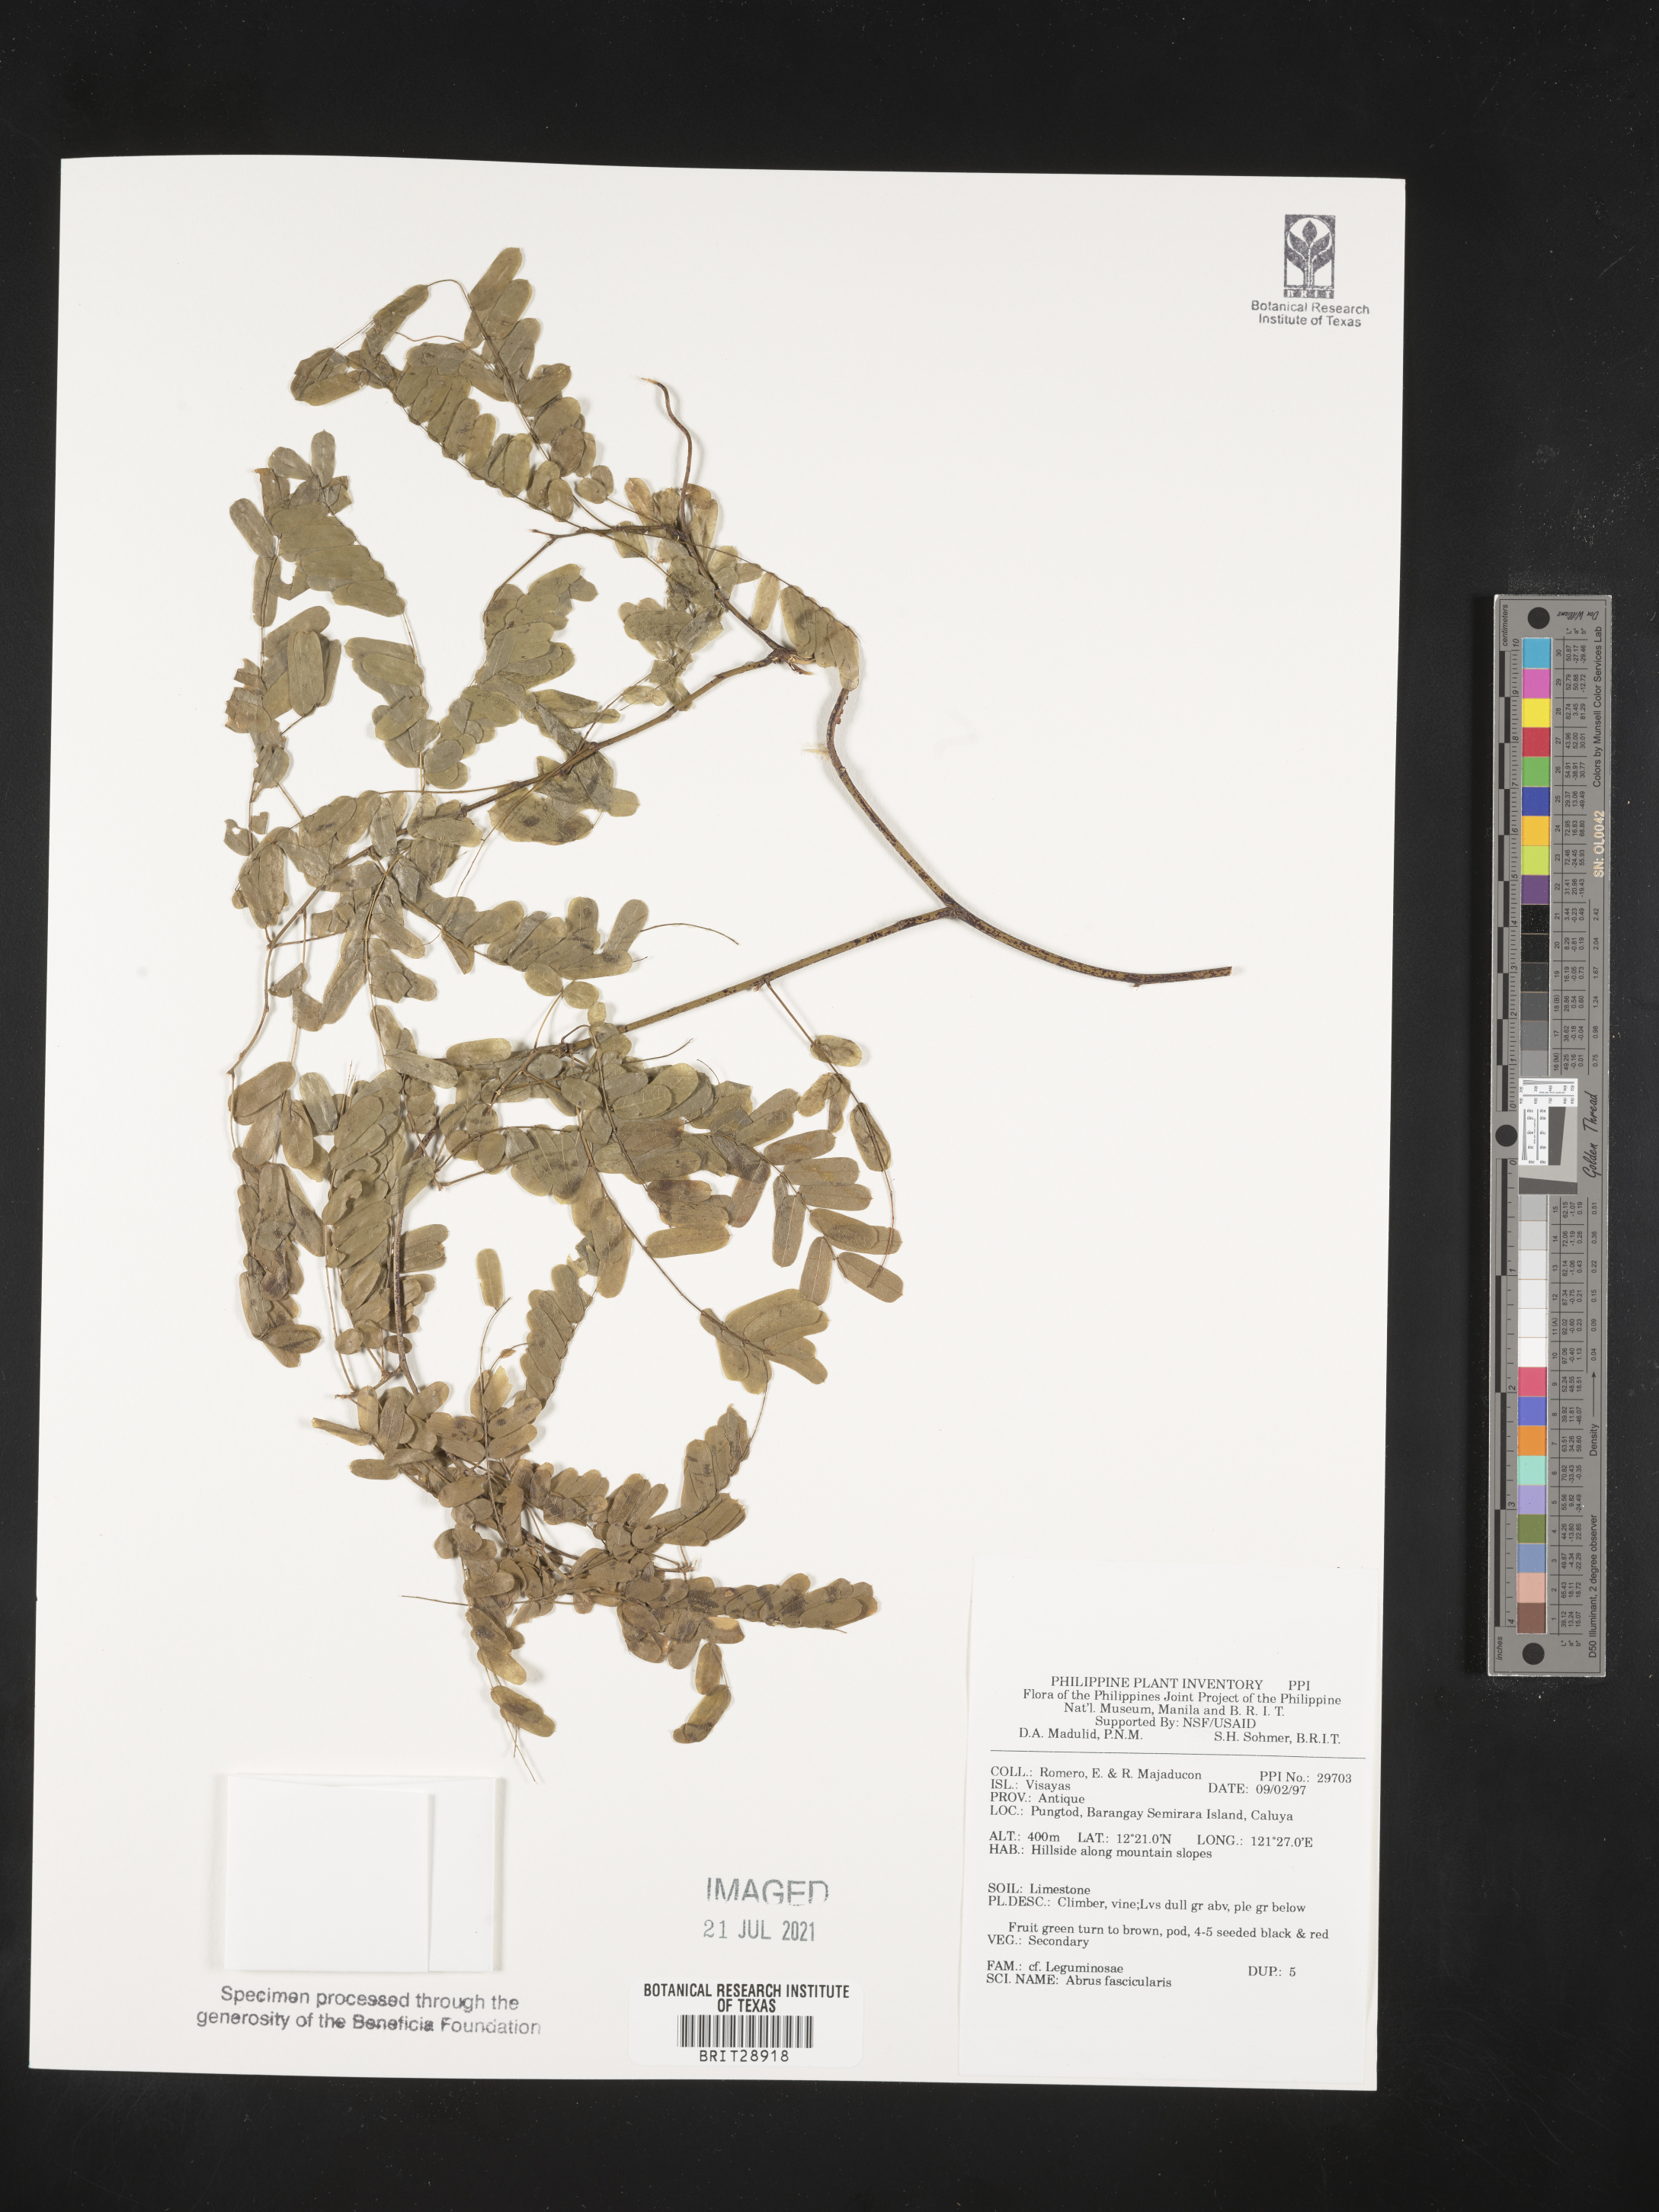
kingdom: Plantae
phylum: Tracheophyta
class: Magnoliopsida
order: Fabales
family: Fabaceae
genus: Abrus
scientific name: Abrus
